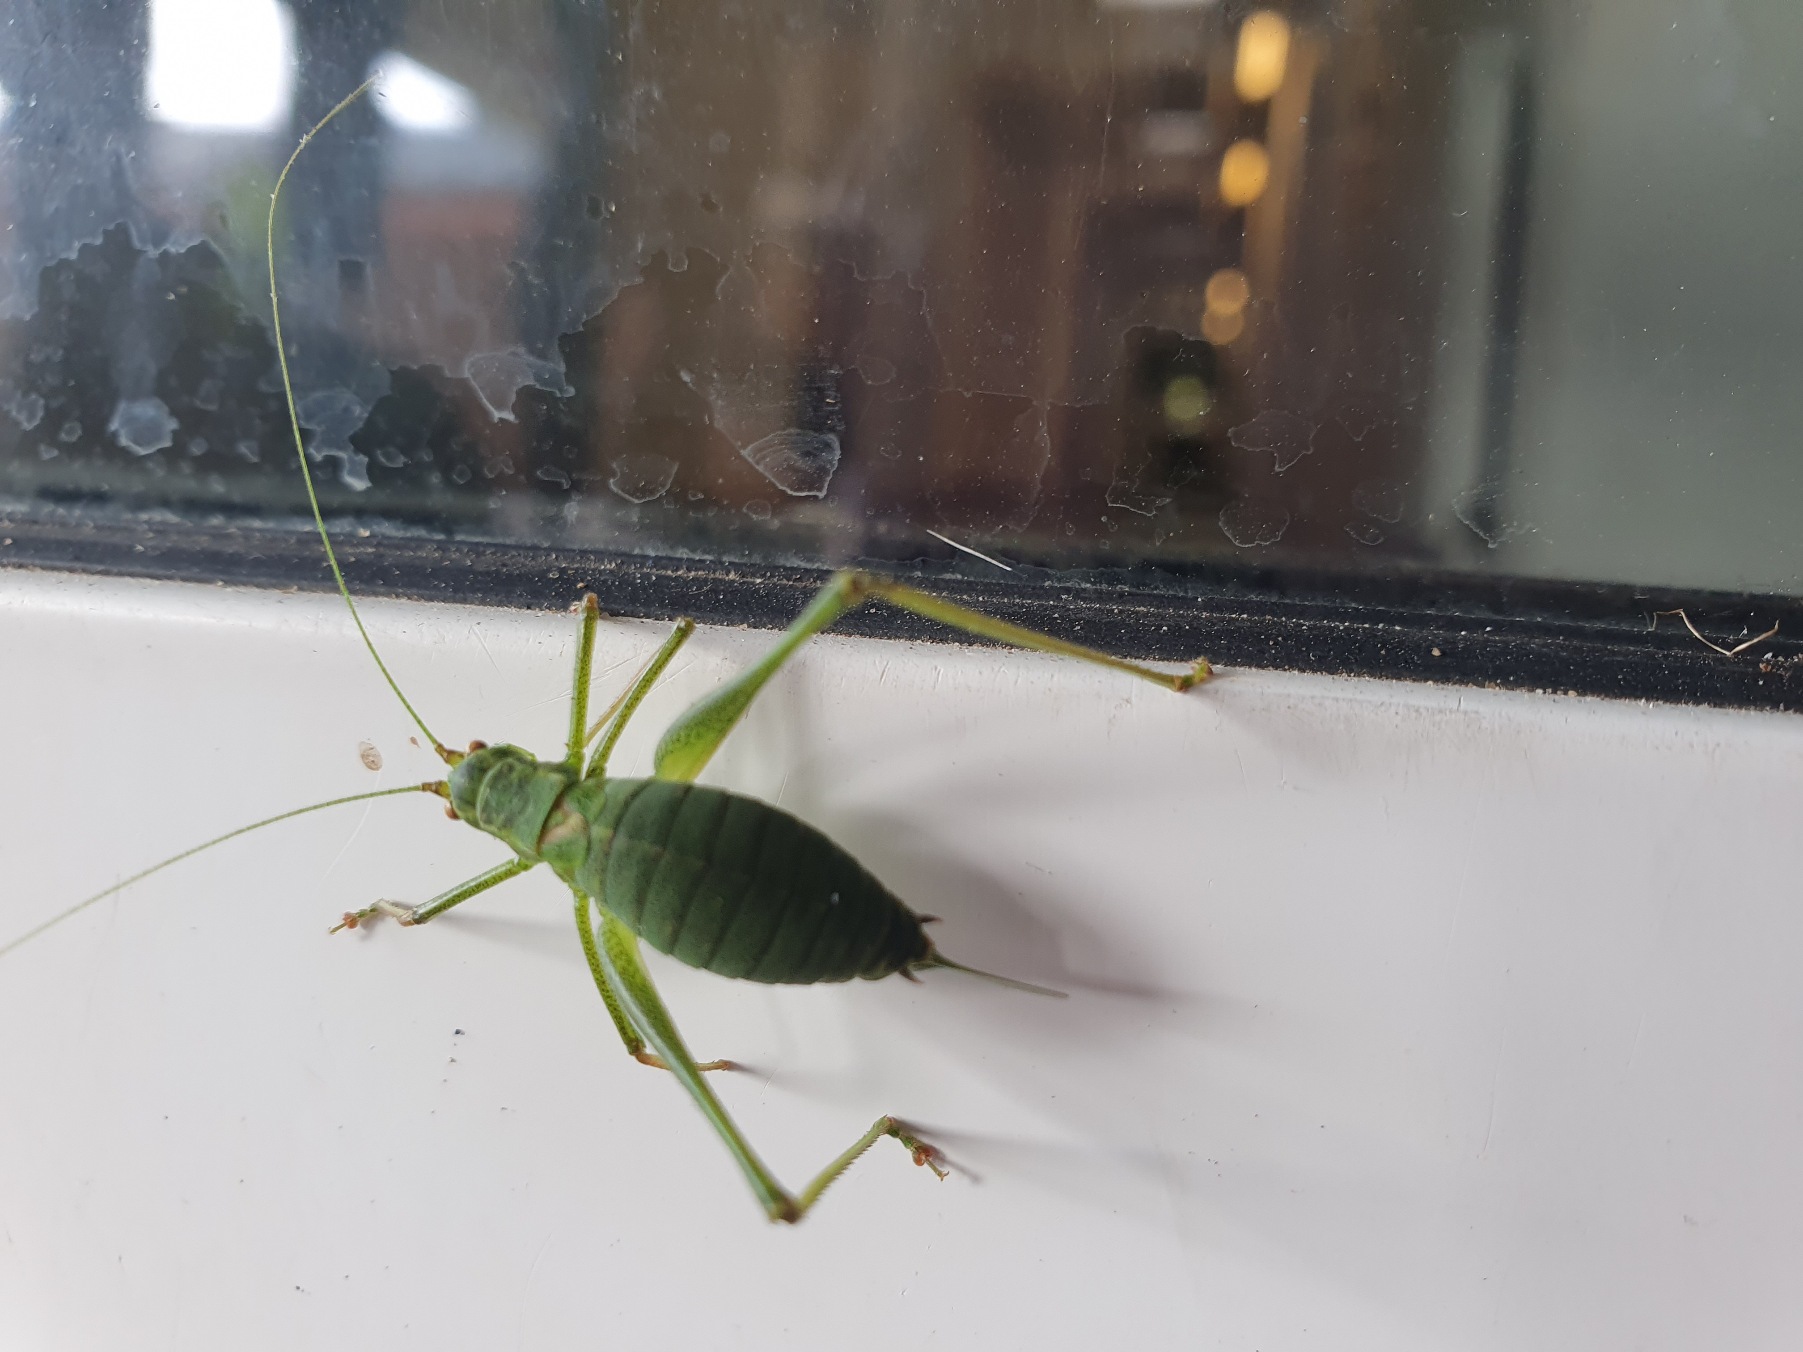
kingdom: Animalia
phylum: Arthropoda
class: Insecta
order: Orthoptera
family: Tettigoniidae
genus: Leptophyes
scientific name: Leptophyes punctatissima
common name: Krumknivgræshoppe
